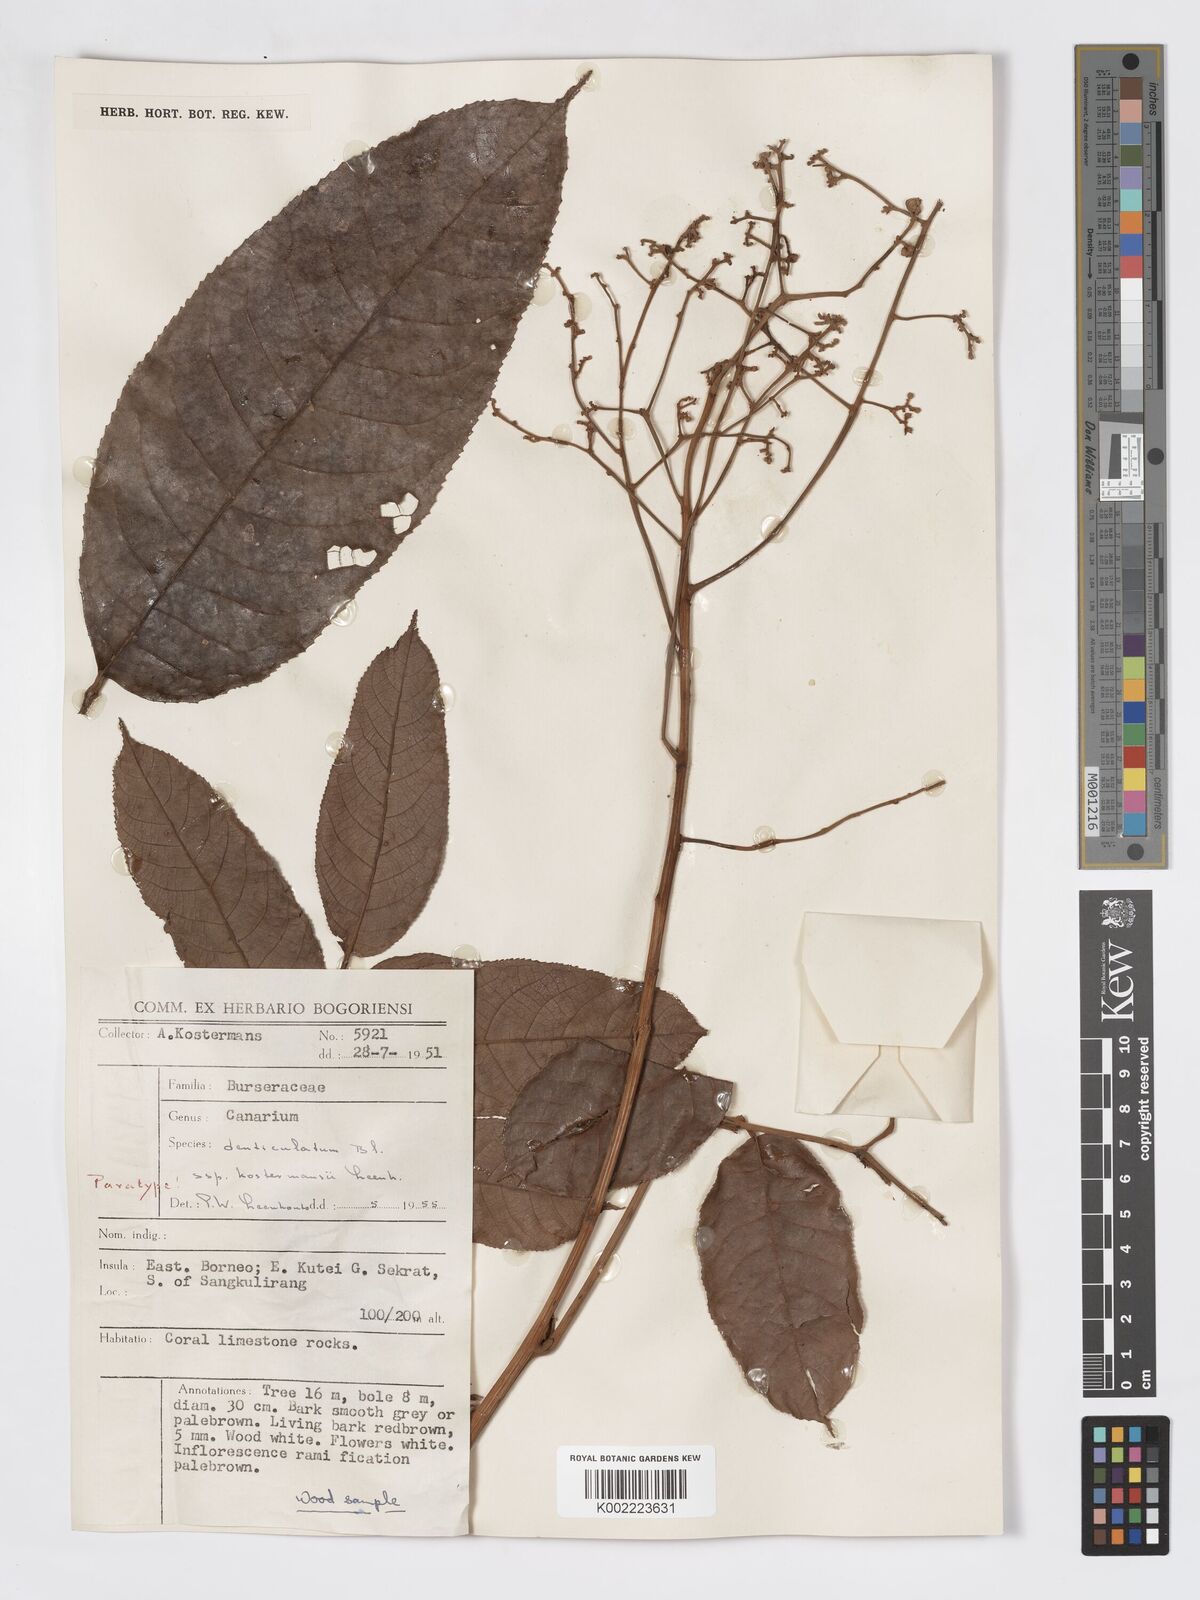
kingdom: Plantae
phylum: Tracheophyta
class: Magnoliopsida
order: Sapindales
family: Burseraceae
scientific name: Burseraceae
